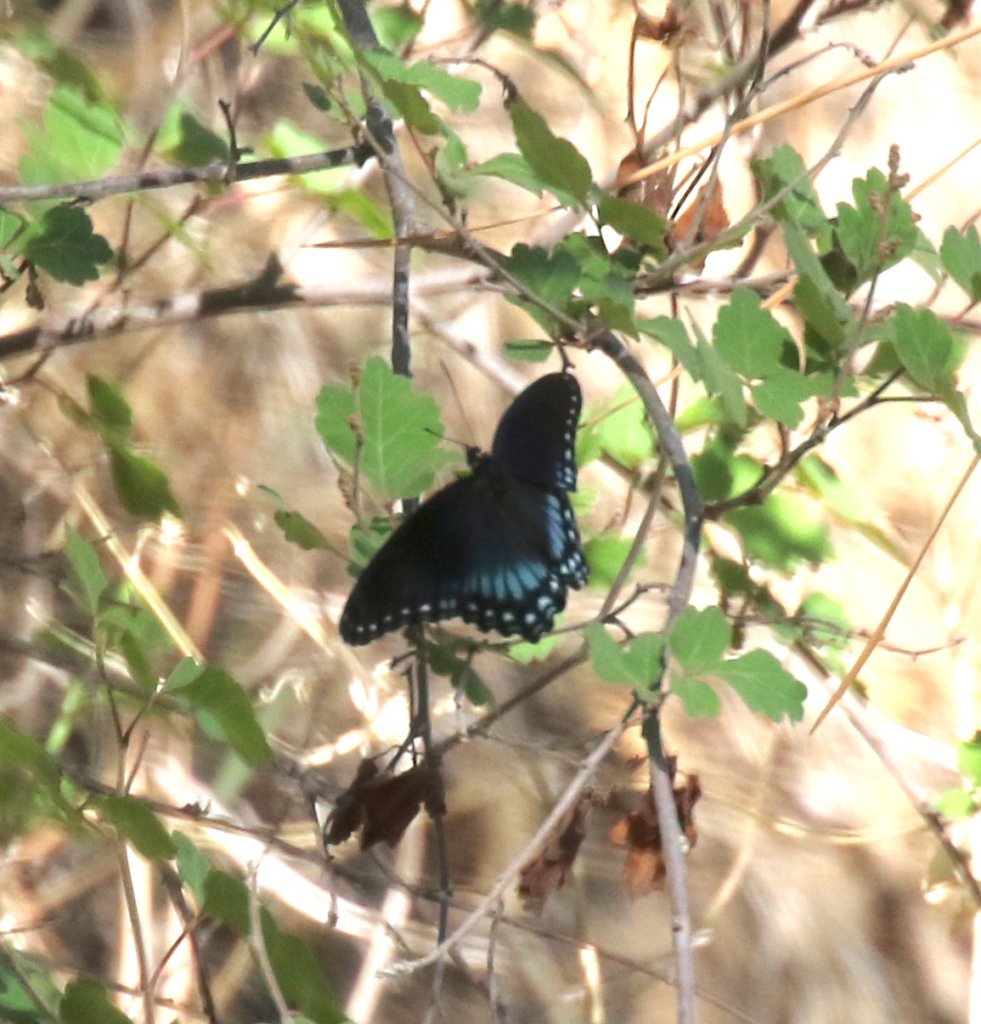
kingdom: Animalia
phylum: Arthropoda
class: Insecta
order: Lepidoptera
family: Nymphalidae
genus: Limenitis
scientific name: Limenitis astyanax
